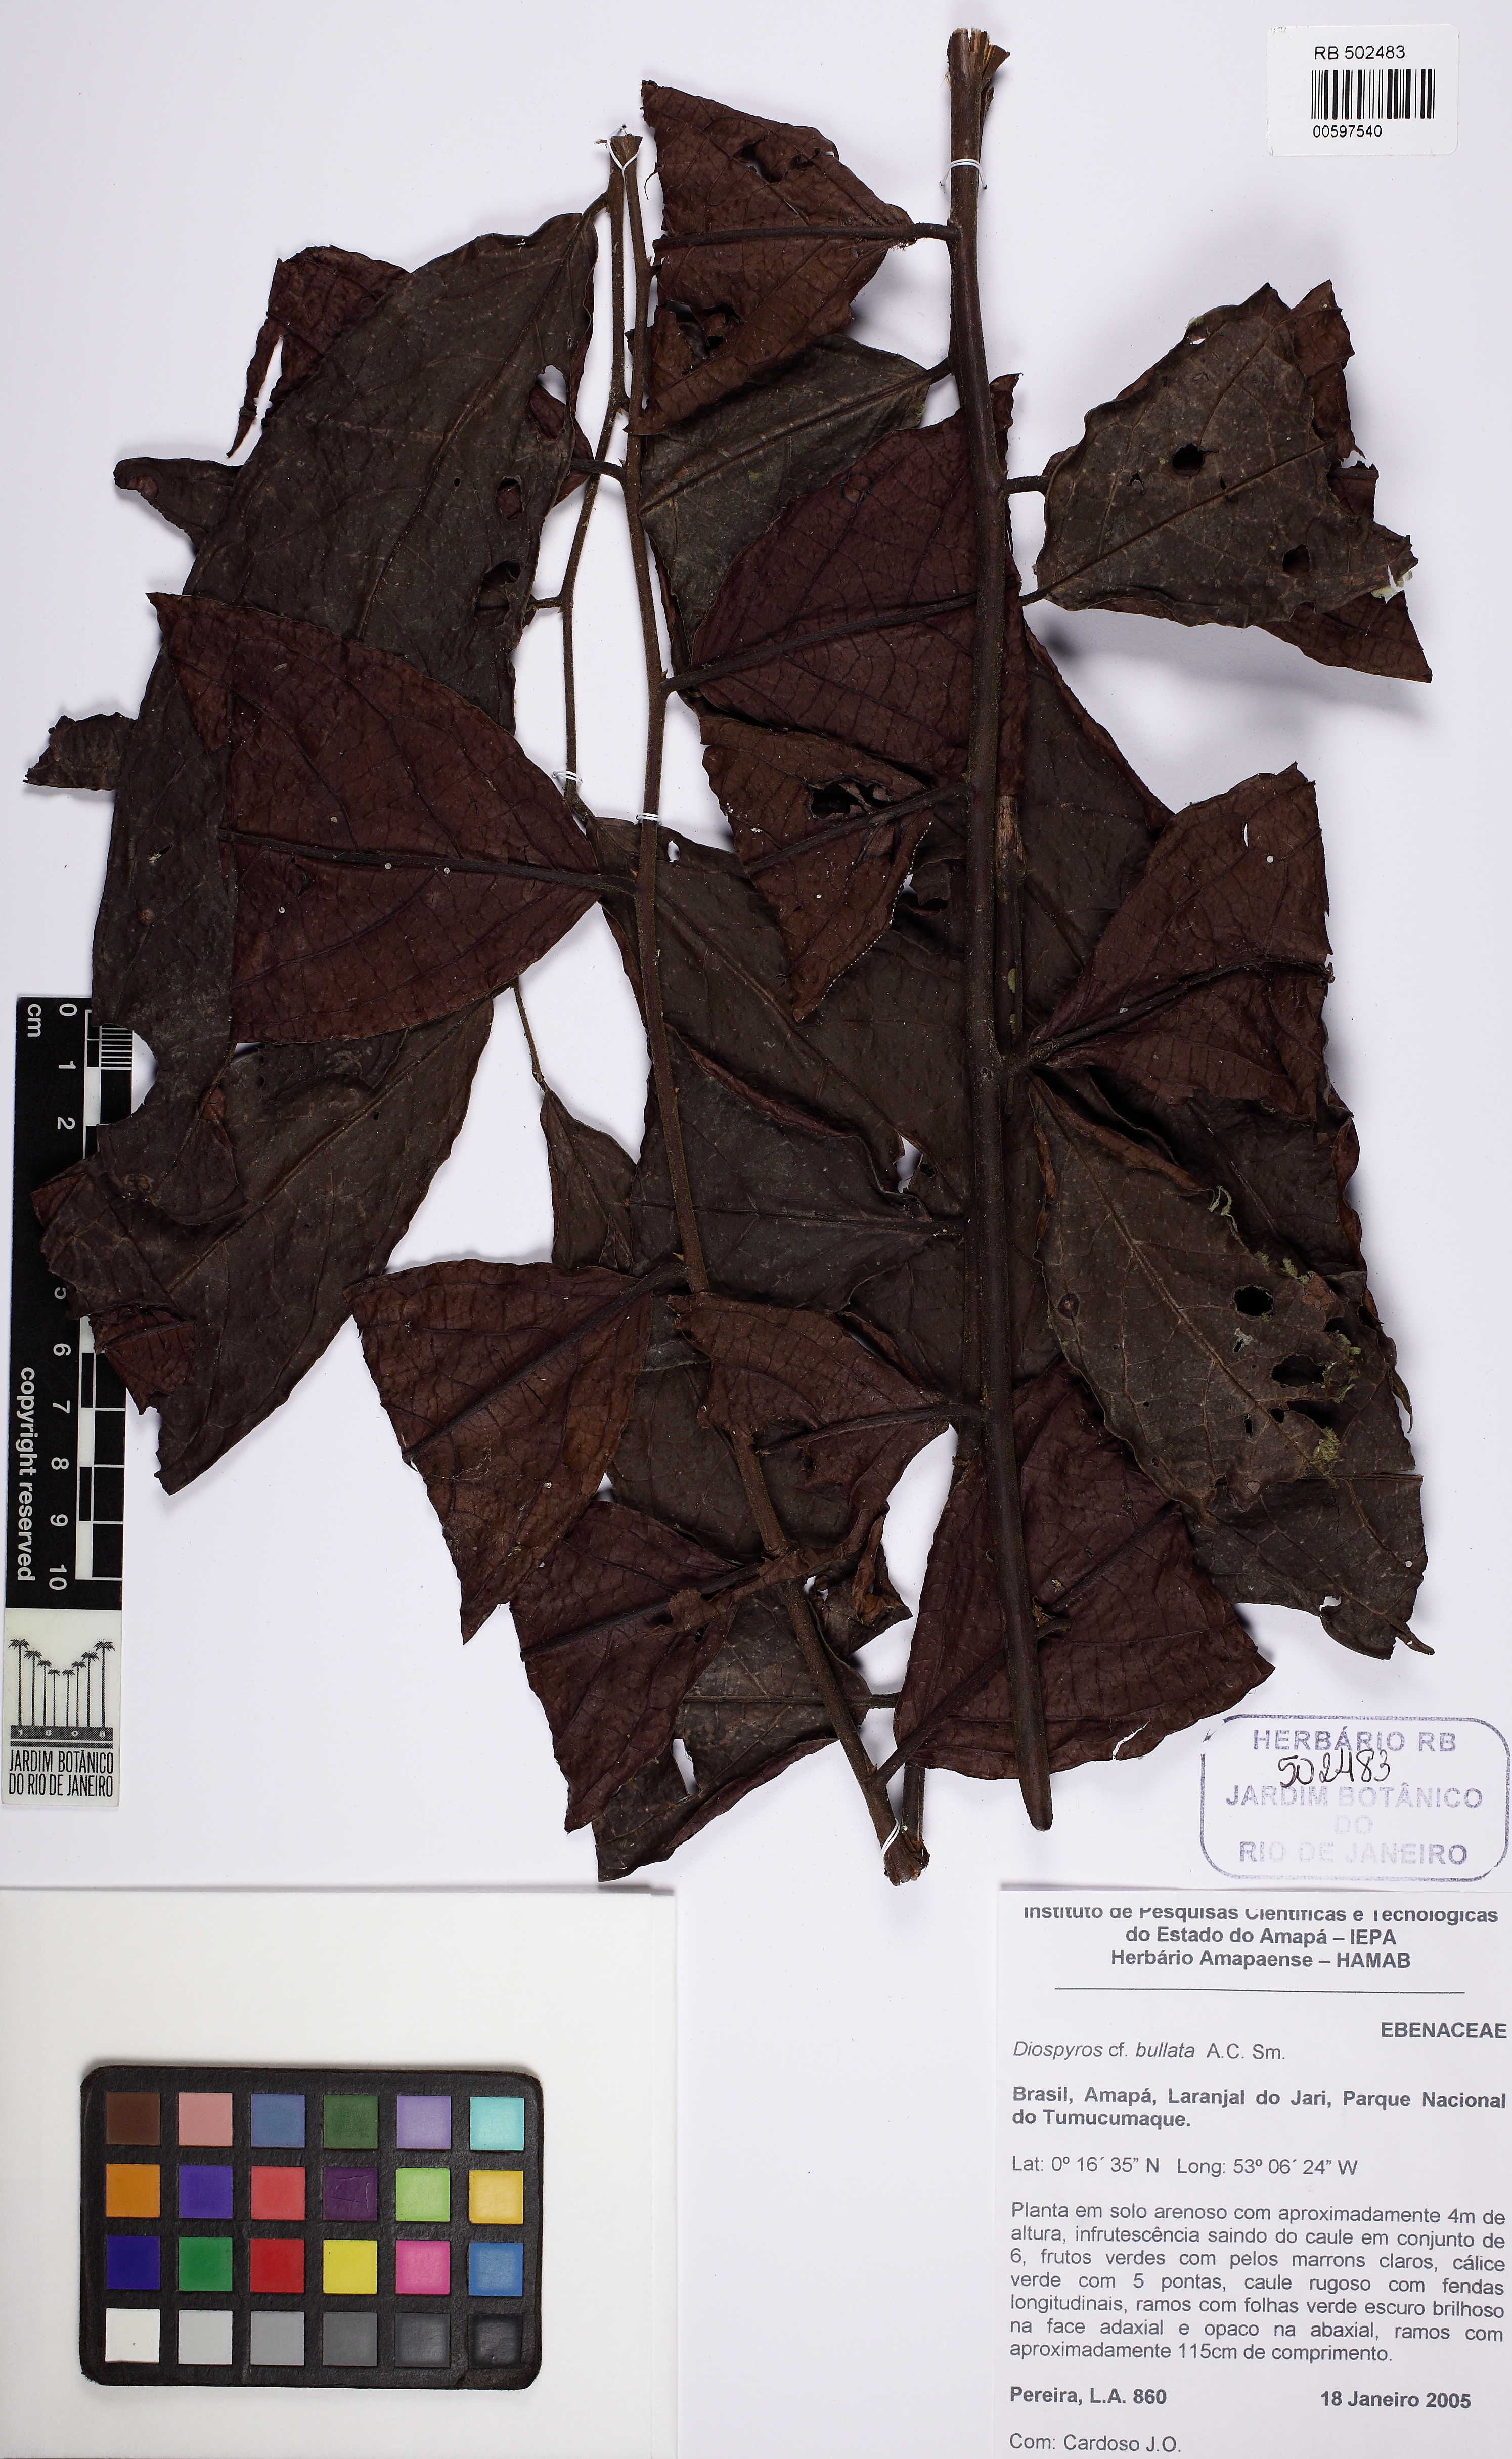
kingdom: Plantae
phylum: Tracheophyta
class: Magnoliopsida
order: Ericales
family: Ebenaceae
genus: Diospyros
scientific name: Diospyros bullata
